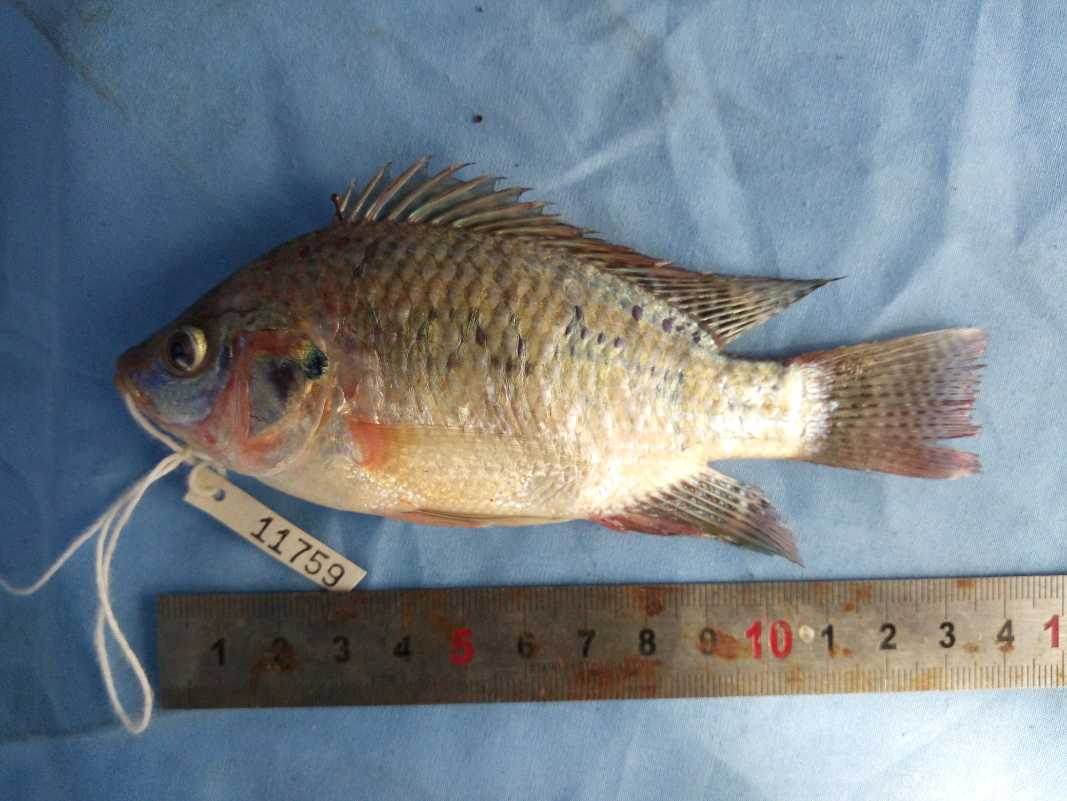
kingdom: Animalia
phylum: Chordata
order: Perciformes
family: Cichlidae
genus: Oreochromis
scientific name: Oreochromis spilurus
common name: Sabaki tilapia
